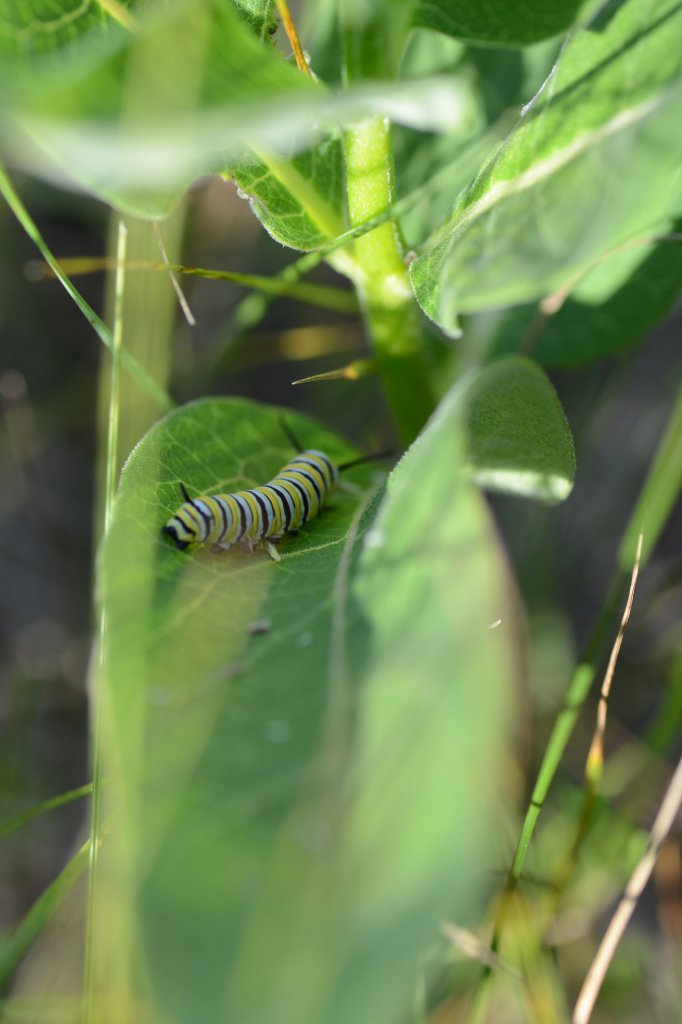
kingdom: Animalia
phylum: Arthropoda
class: Insecta
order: Lepidoptera
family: Nymphalidae
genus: Danaus
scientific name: Danaus plexippus
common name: Monarch
